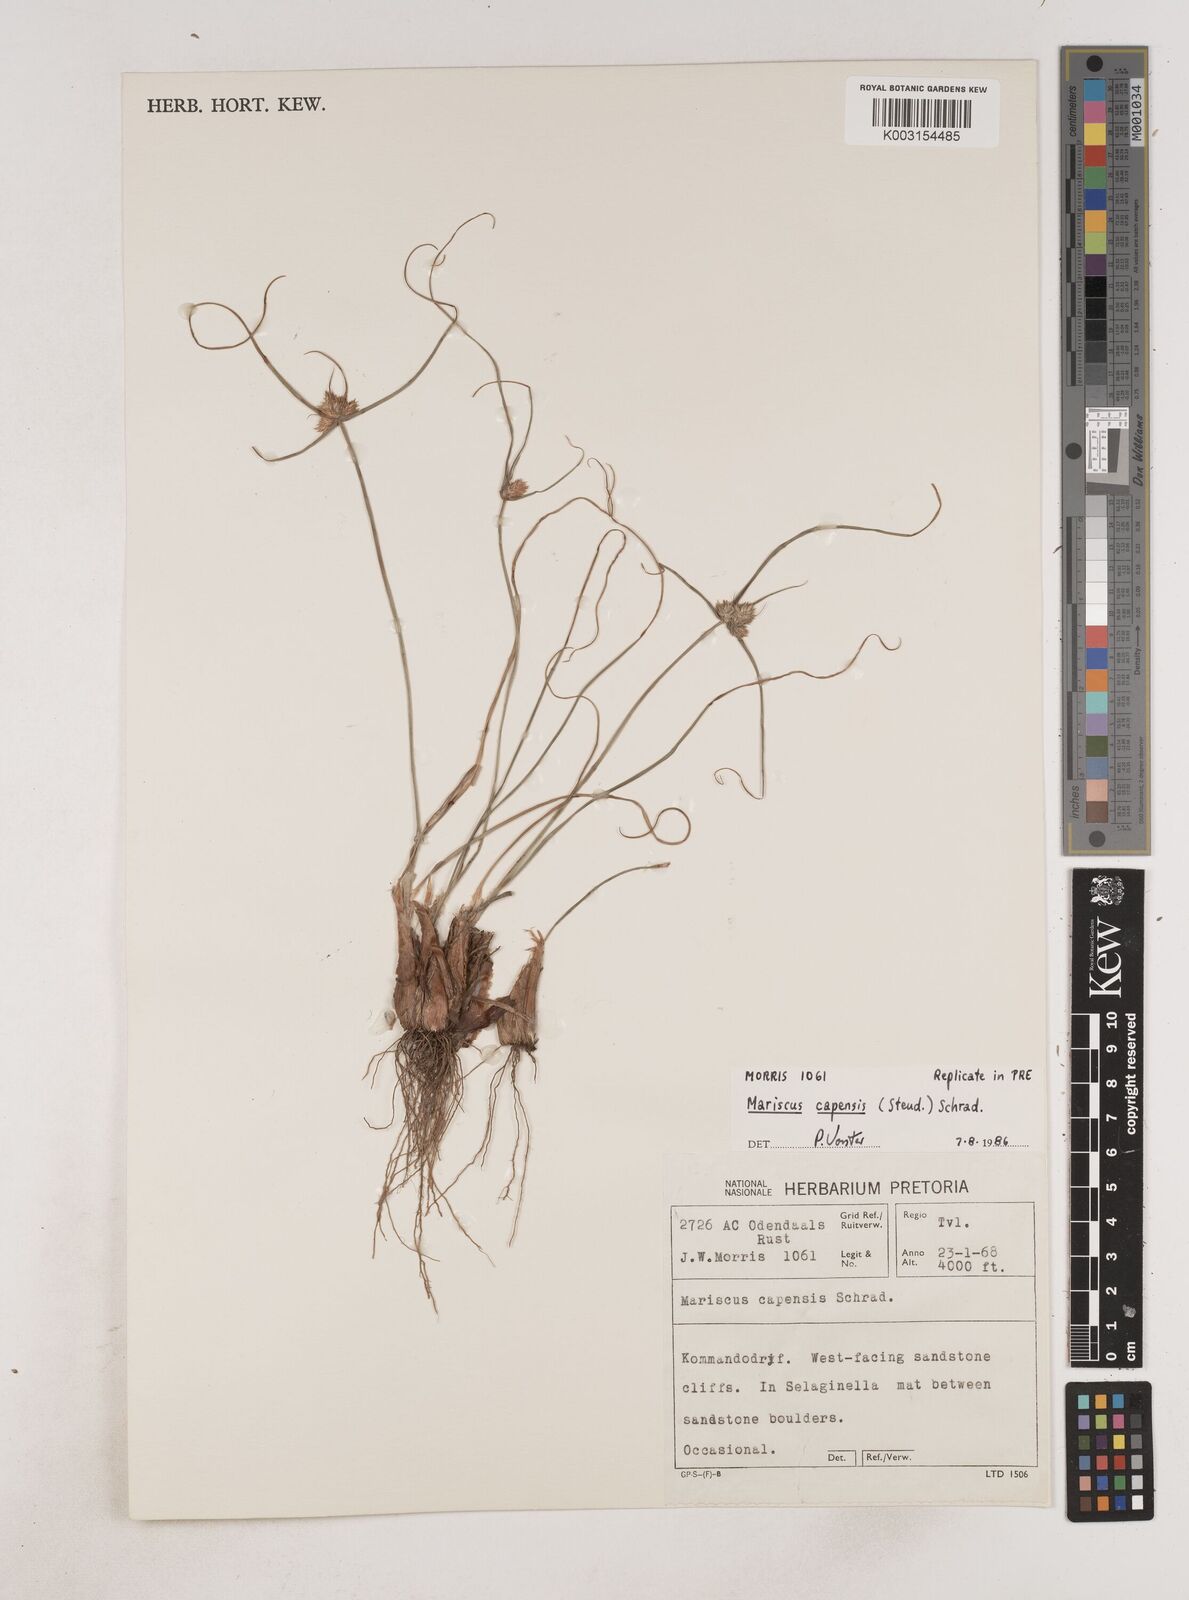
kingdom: Plantae
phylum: Tracheophyta
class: Liliopsida
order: Poales
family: Cyperaceae
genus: Cyperus
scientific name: Cyperus capensis
